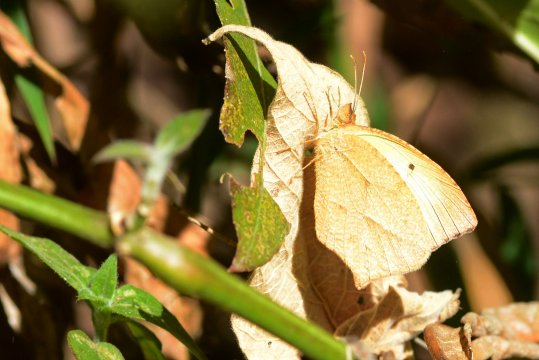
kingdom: Animalia
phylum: Arthropoda
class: Insecta
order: Lepidoptera
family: Pieridae
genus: Eurema
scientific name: Eurema mexicana
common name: Mexican Yellow
